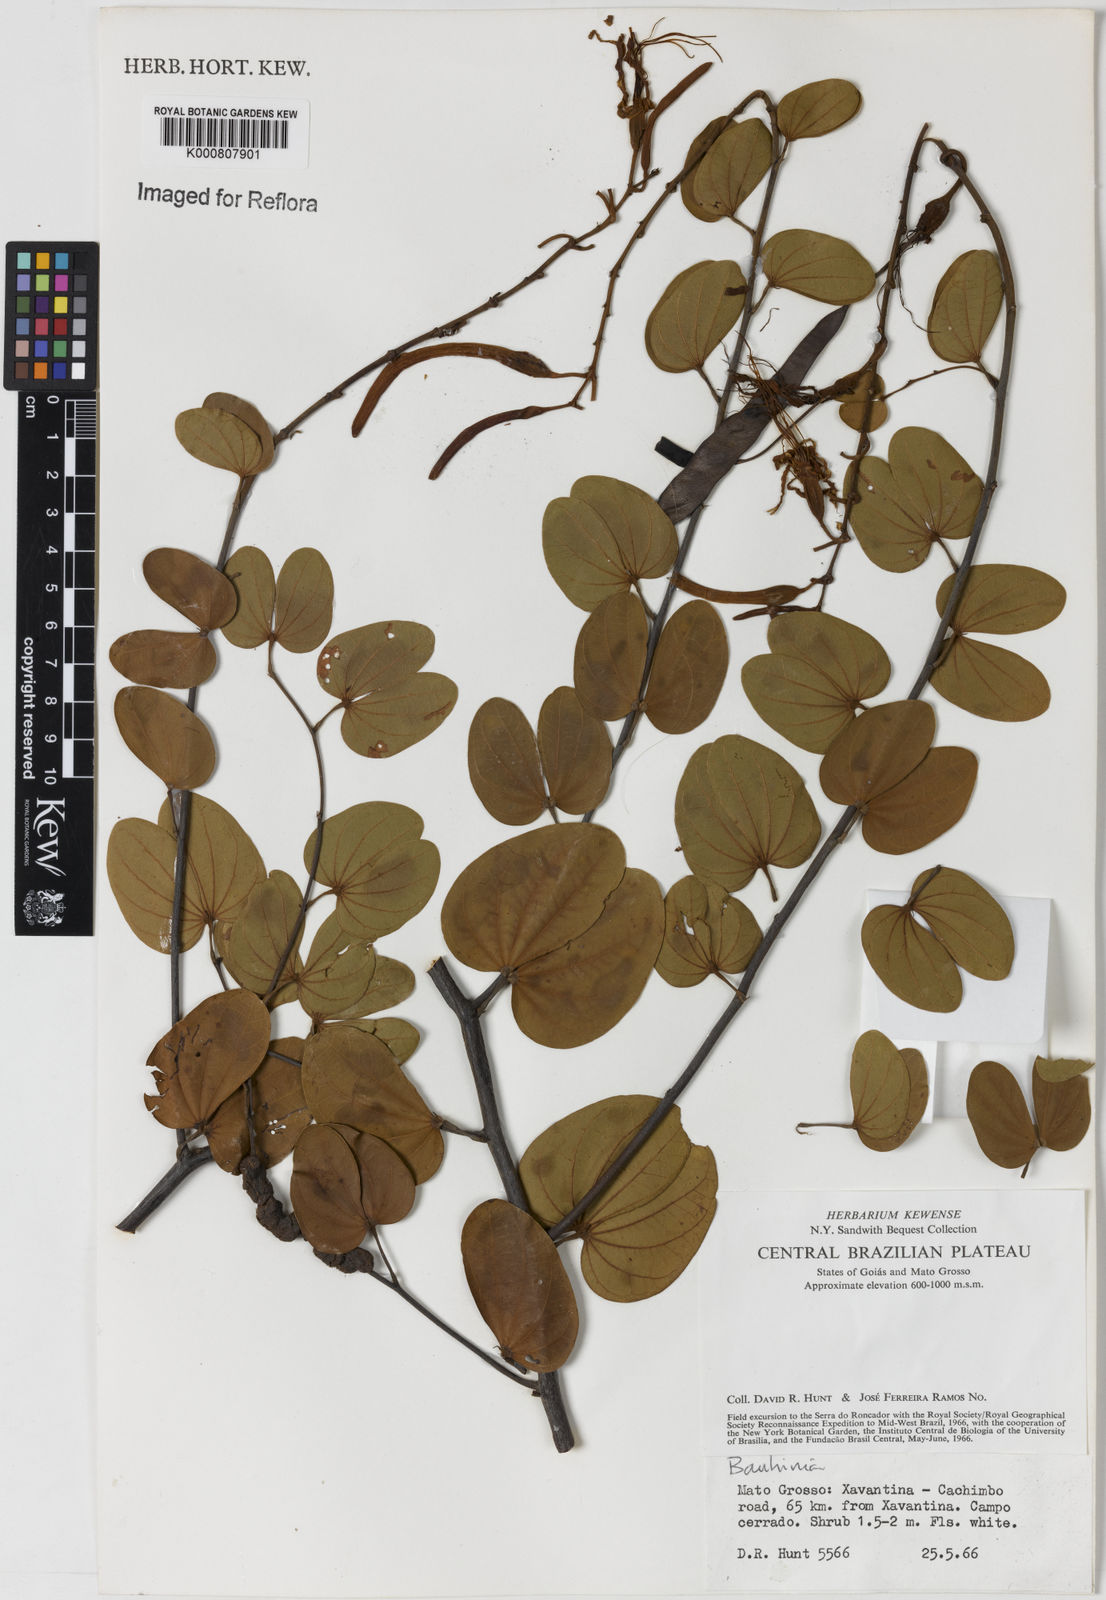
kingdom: Plantae
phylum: Tracheophyta
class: Magnoliopsida
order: Fabales
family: Fabaceae
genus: Bauhinia
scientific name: Bauhinia
